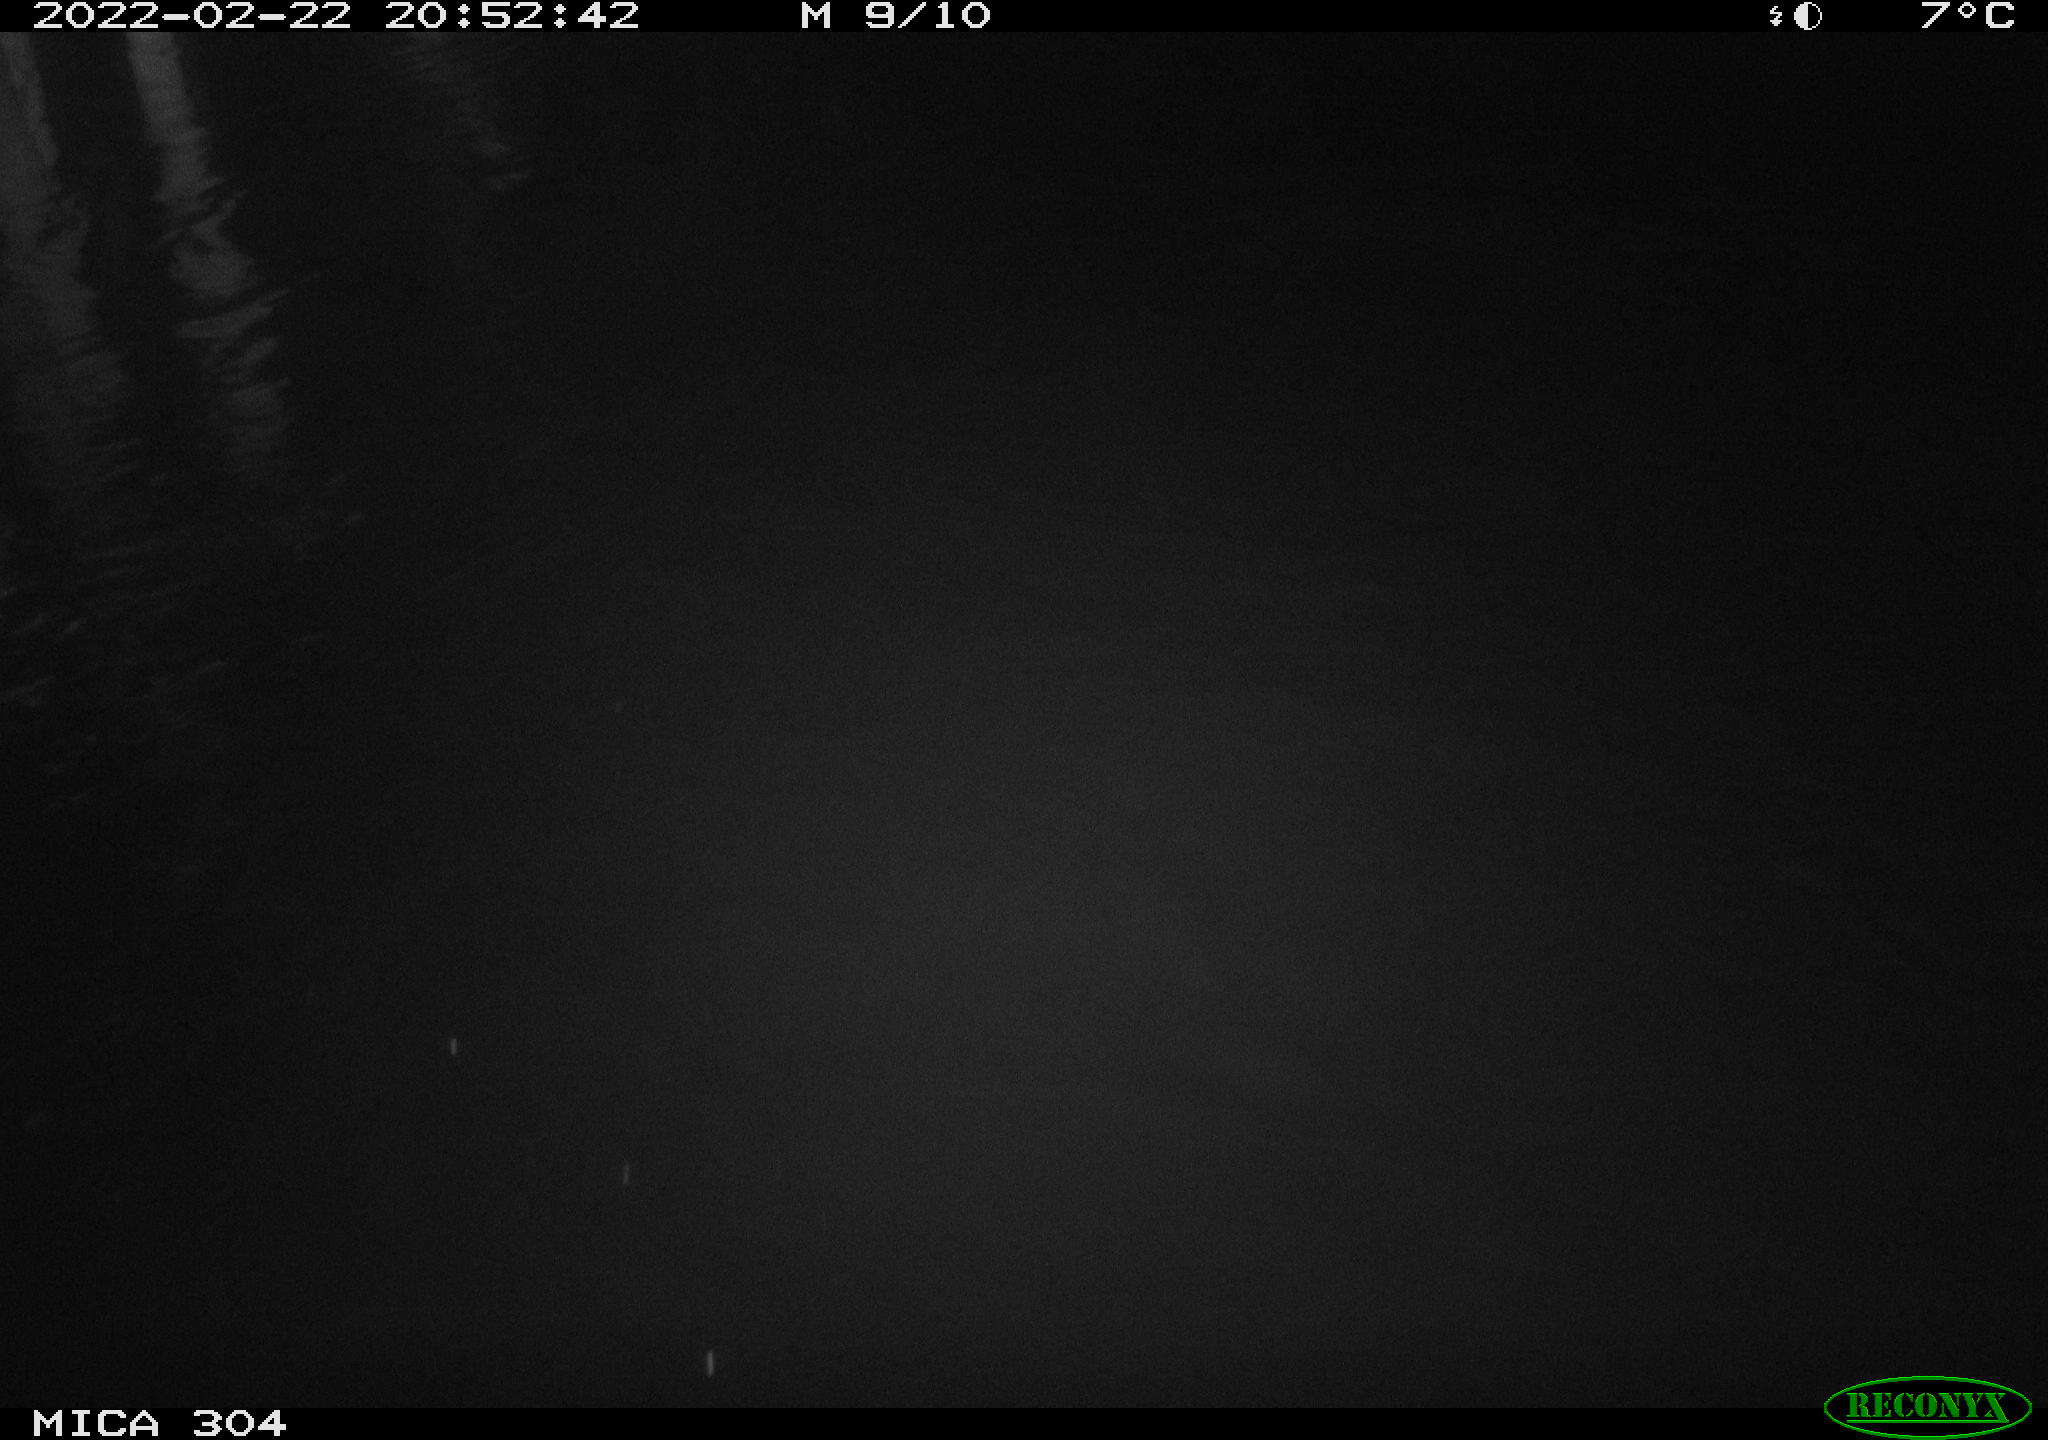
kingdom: Animalia
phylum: Chordata
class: Aves
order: Anseriformes
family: Anatidae
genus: Anas
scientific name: Anas platyrhynchos
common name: Mallard
